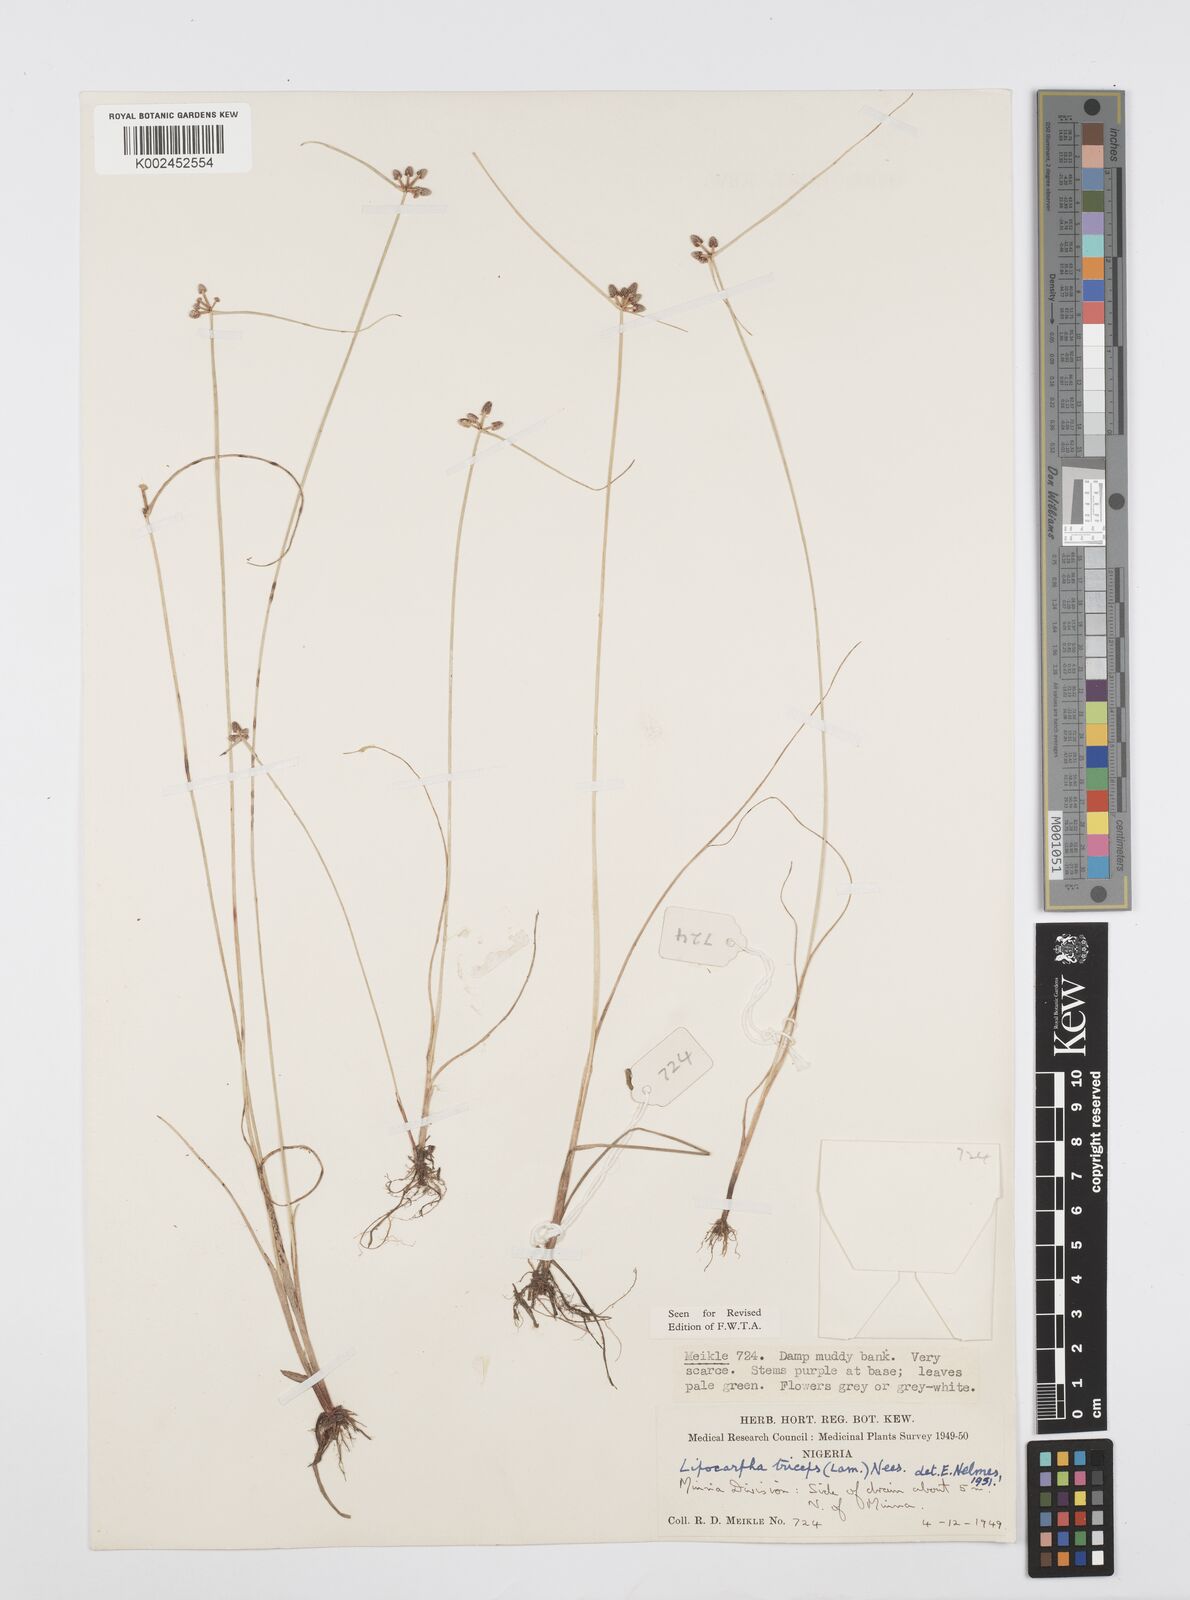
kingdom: Plantae
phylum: Tracheophyta
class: Liliopsida
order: Poales
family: Cyperaceae
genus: Cyperus
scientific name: Cyperus filiformis
